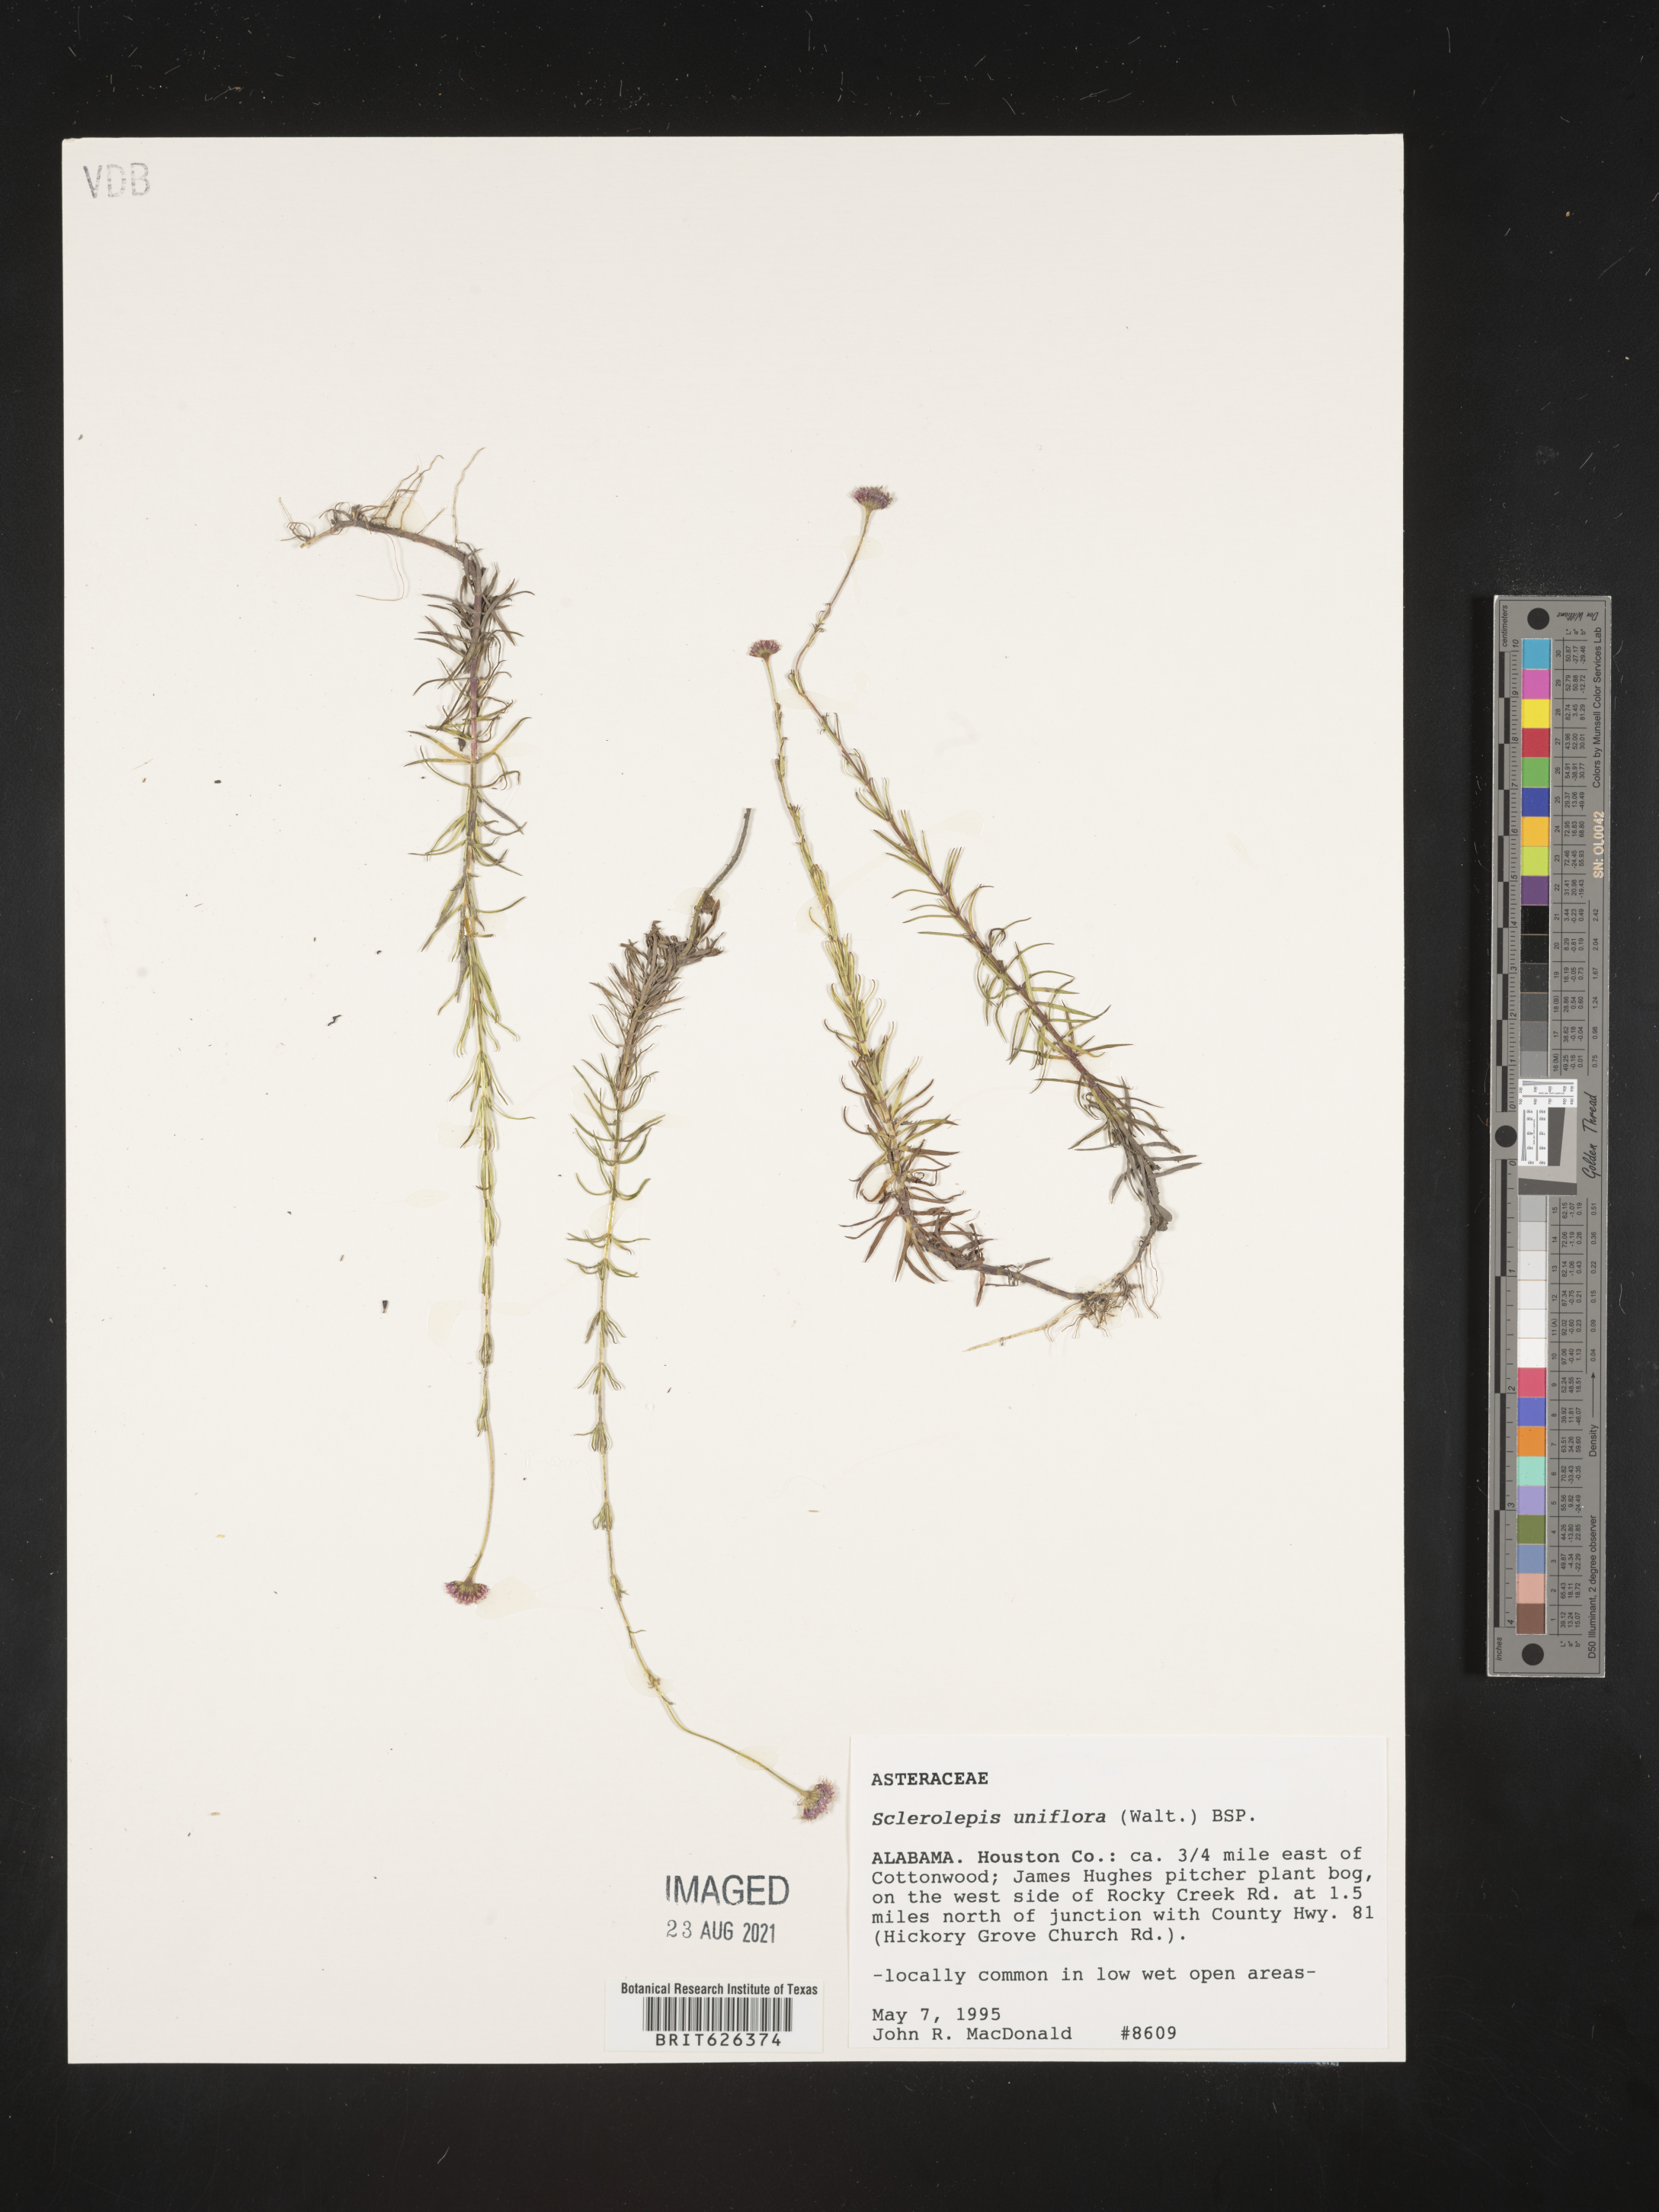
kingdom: Plantae
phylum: Tracheophyta
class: Magnoliopsida
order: Asterales
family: Asteraceae
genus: Sclerolepis
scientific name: Sclerolepis
